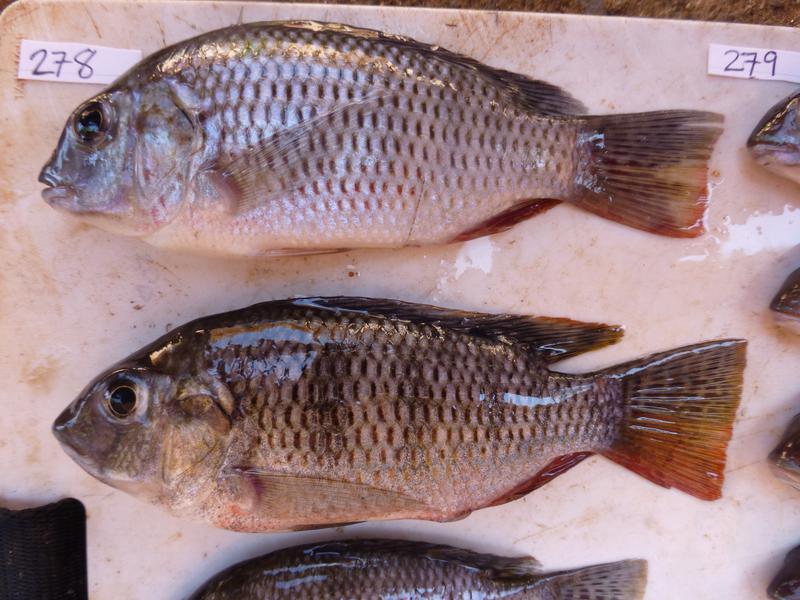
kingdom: Animalia
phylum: Chordata
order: Perciformes
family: Cichlidae
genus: Coptodon
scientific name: Coptodon rendalli
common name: Redbreast tilapia
